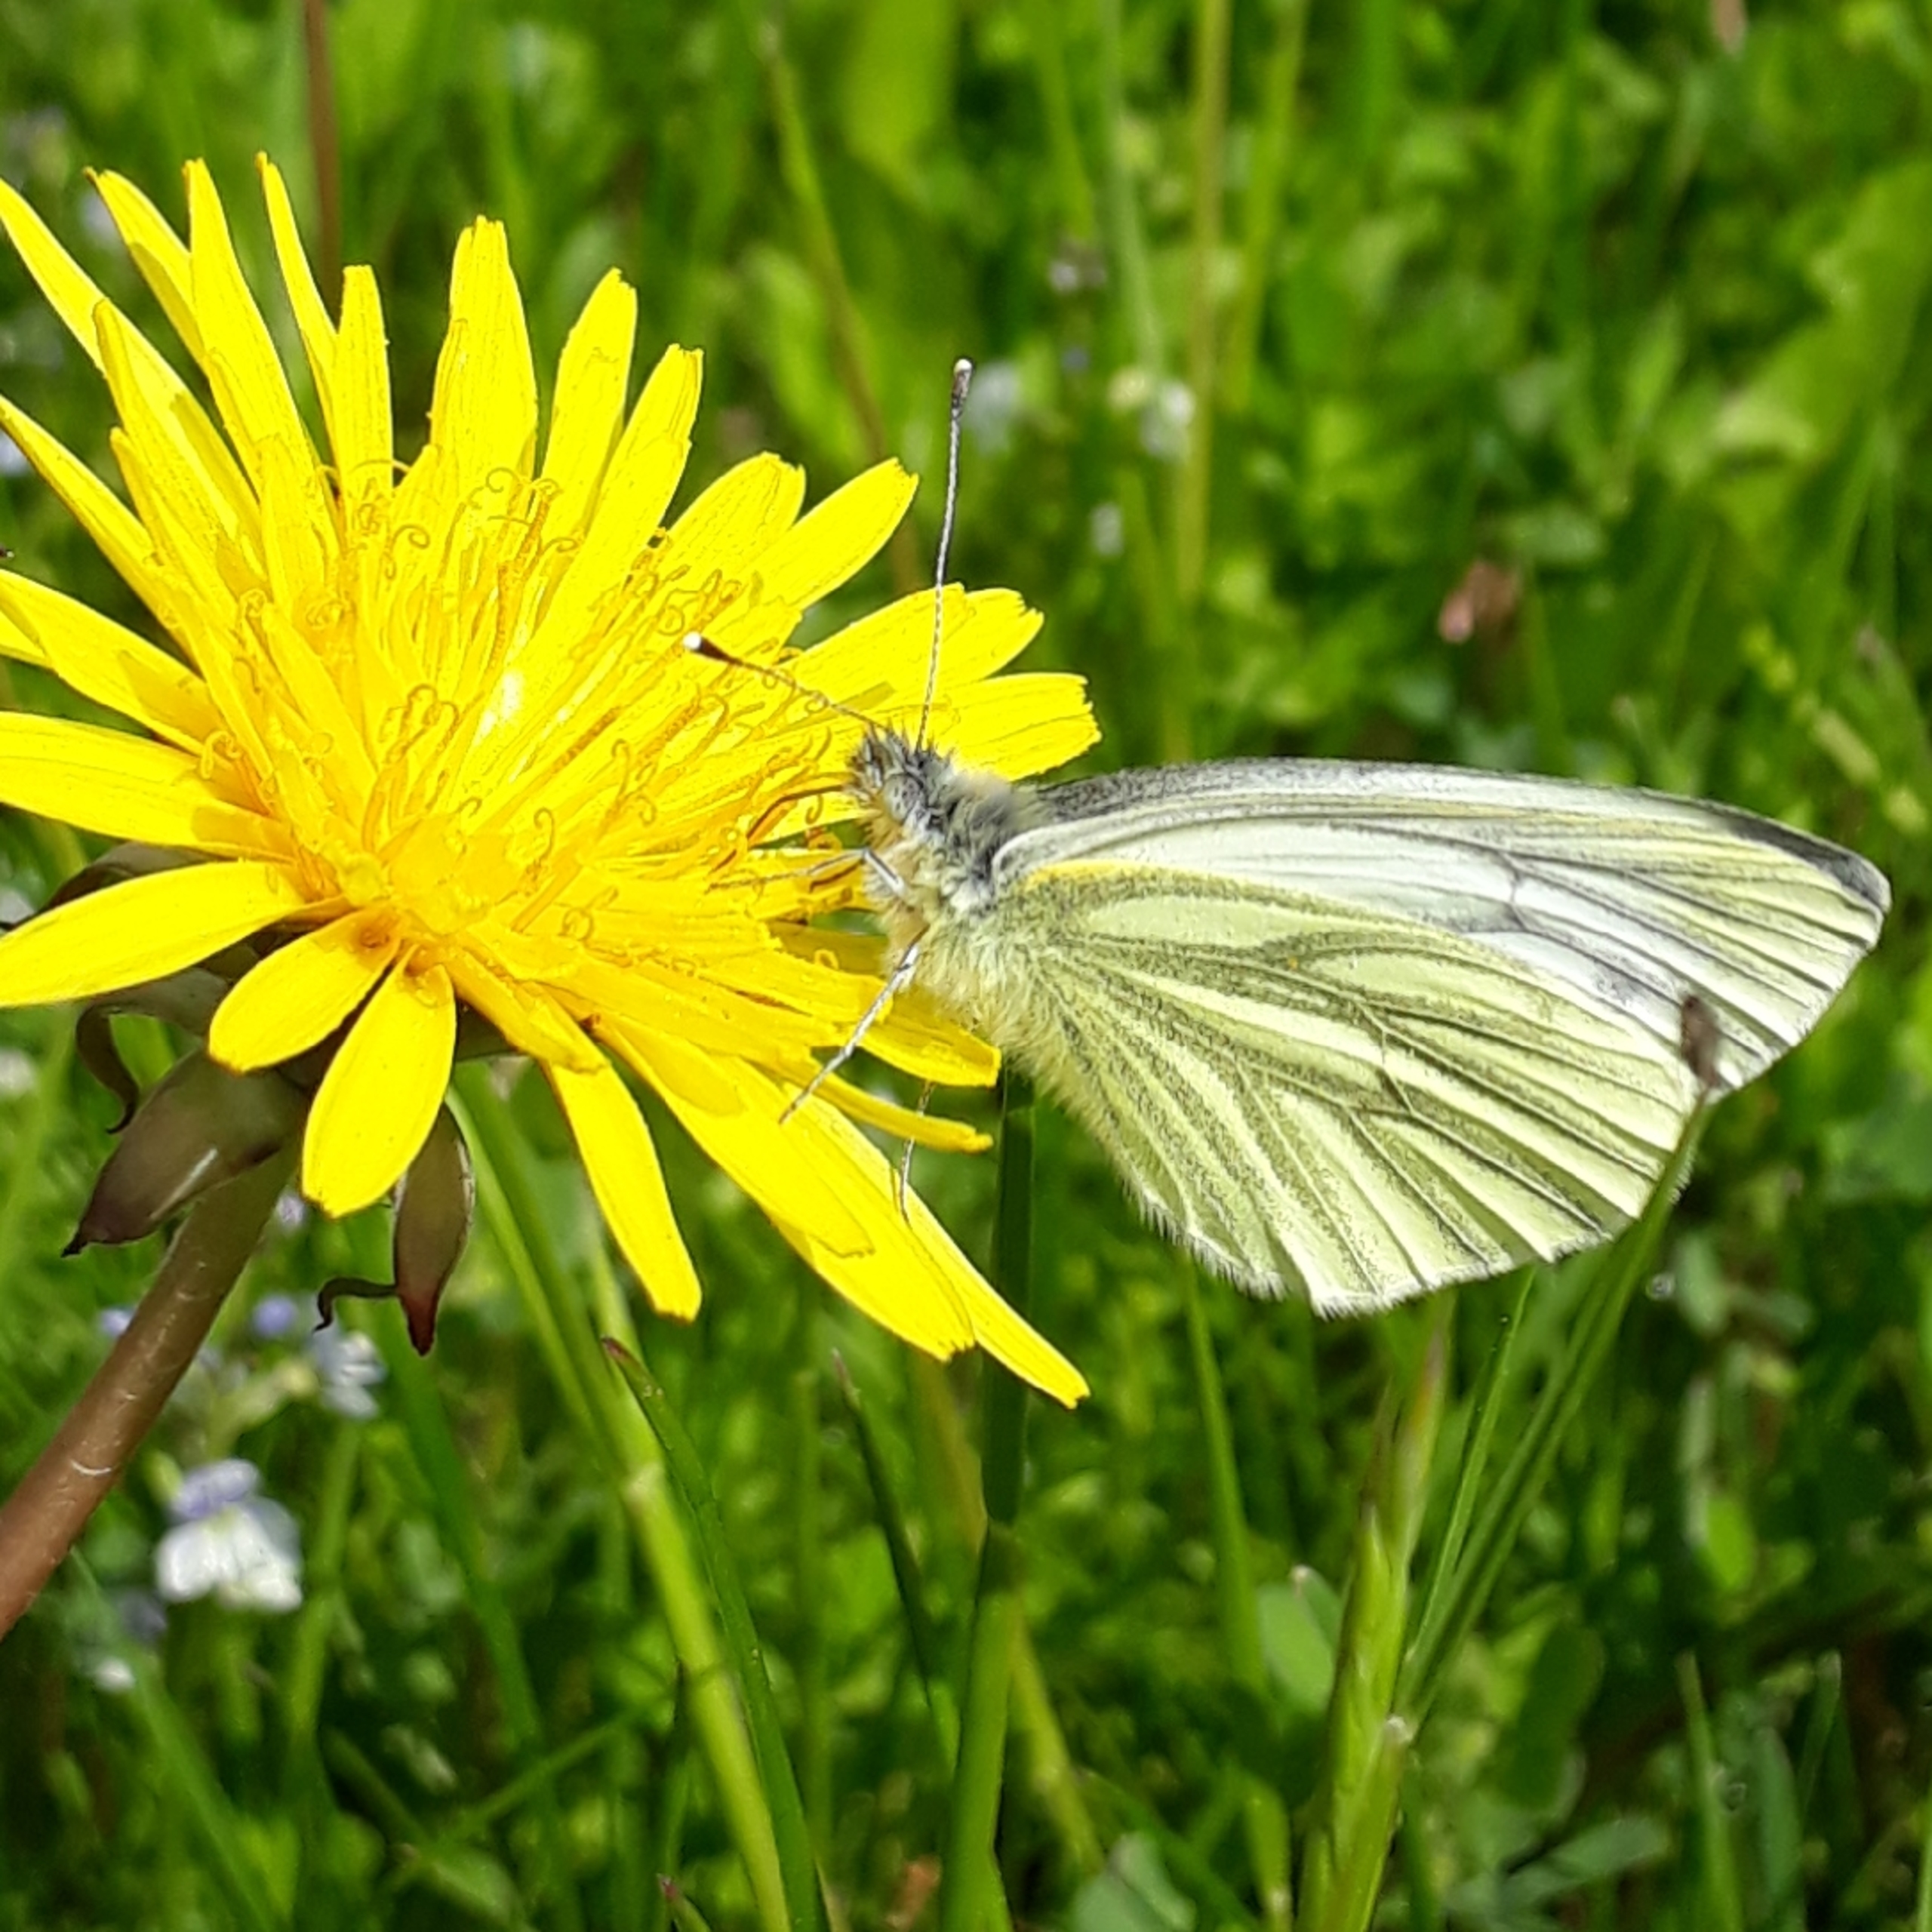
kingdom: Animalia
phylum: Arthropoda
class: Insecta
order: Lepidoptera
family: Pieridae
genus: Pieris
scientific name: Pieris napi
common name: Grønåret kålsommerfugl
